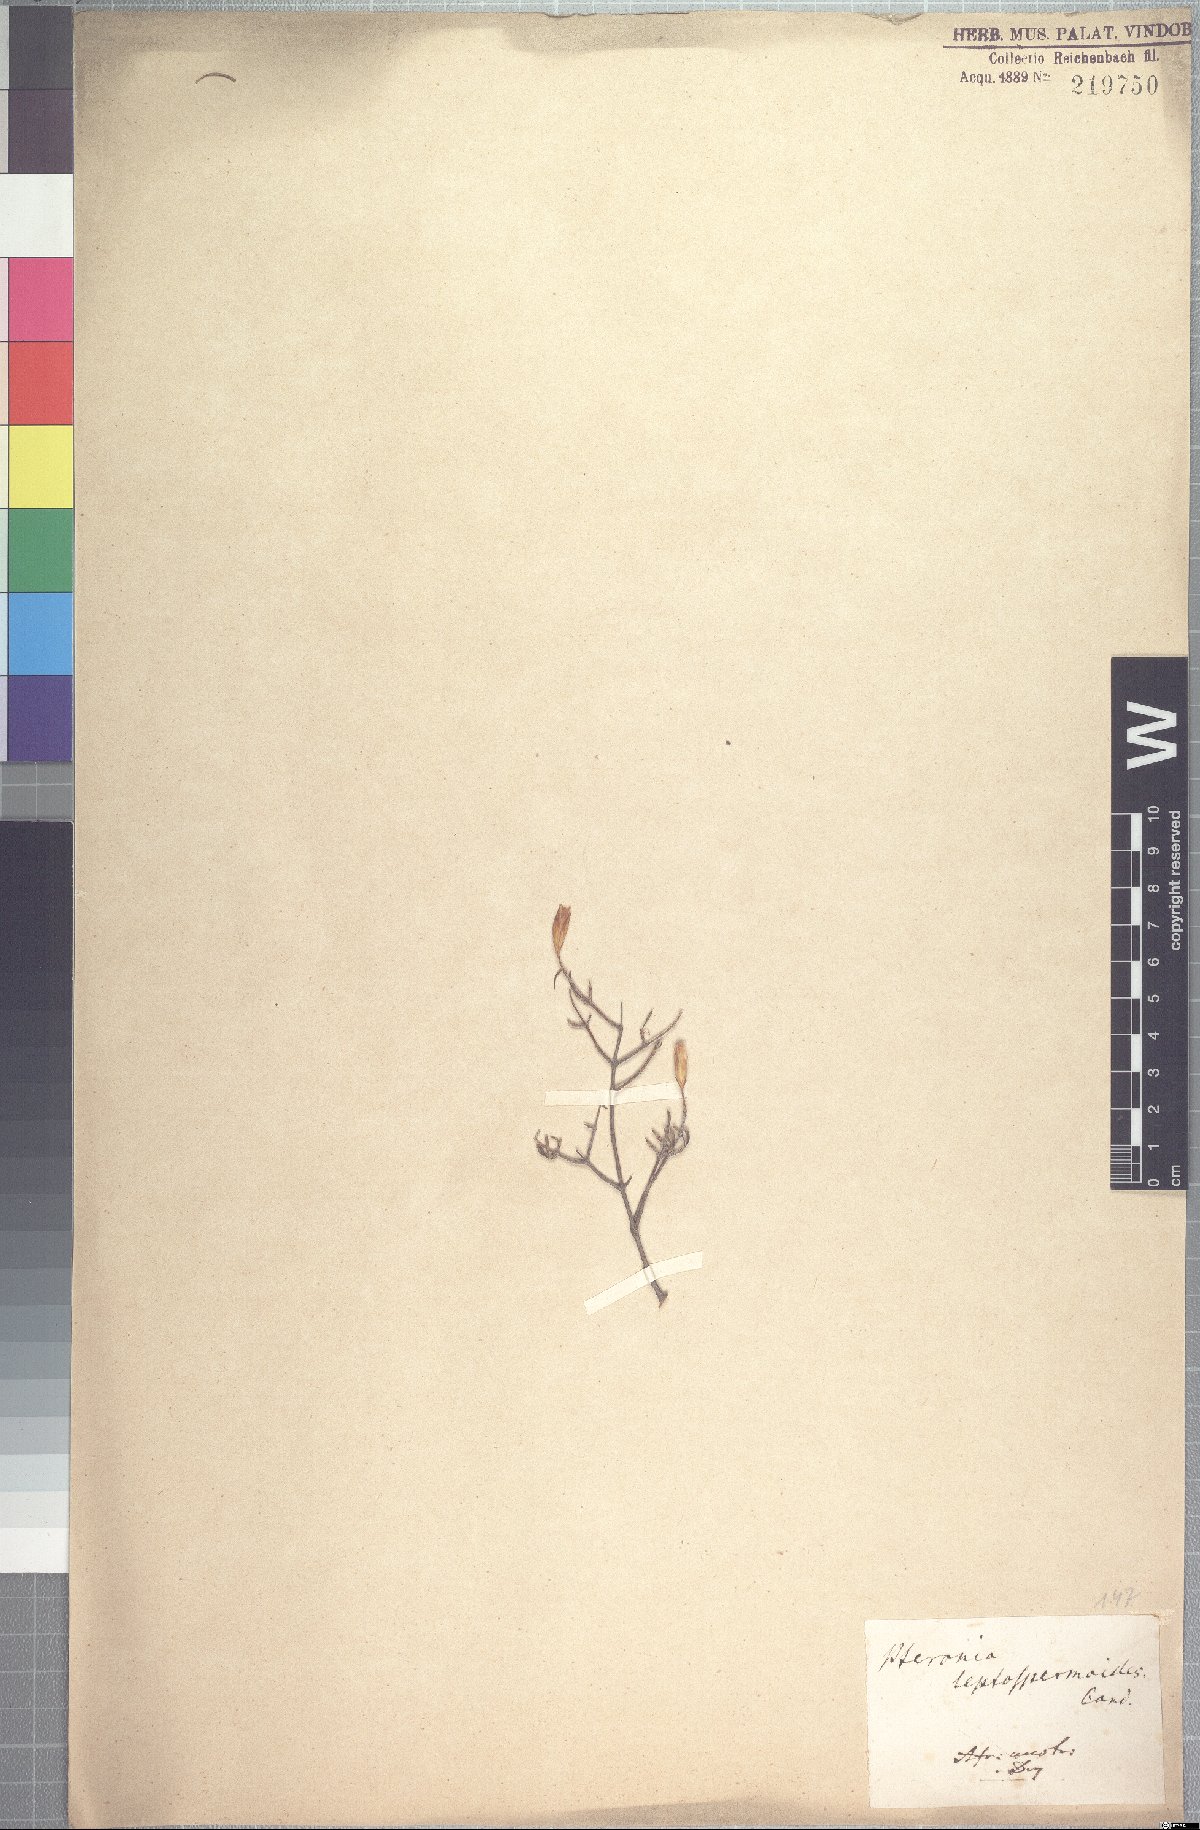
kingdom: Plantae
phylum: Tracheophyta
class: Magnoliopsida
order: Asterales
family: Asteraceae
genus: Pteronia
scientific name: Pteronia leptospermoides
